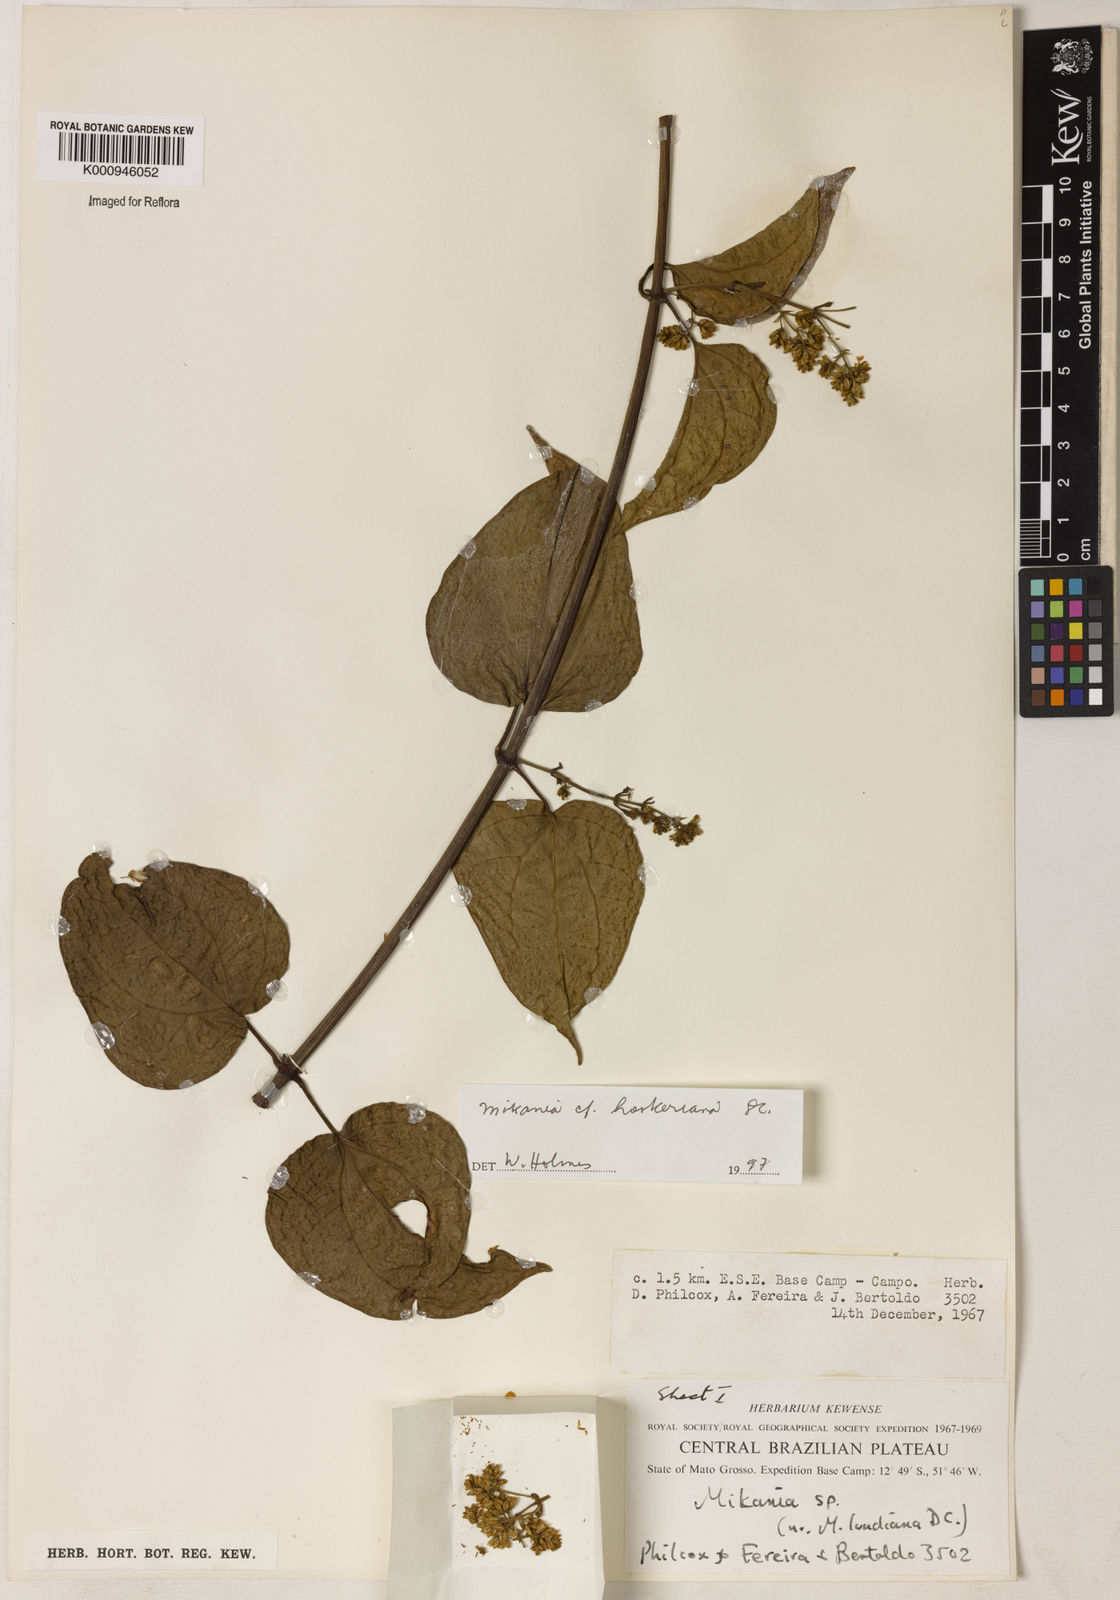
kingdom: Plantae
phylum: Tracheophyta
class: Magnoliopsida
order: Asterales
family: Asteraceae
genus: Mikania
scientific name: Mikania lundiana
